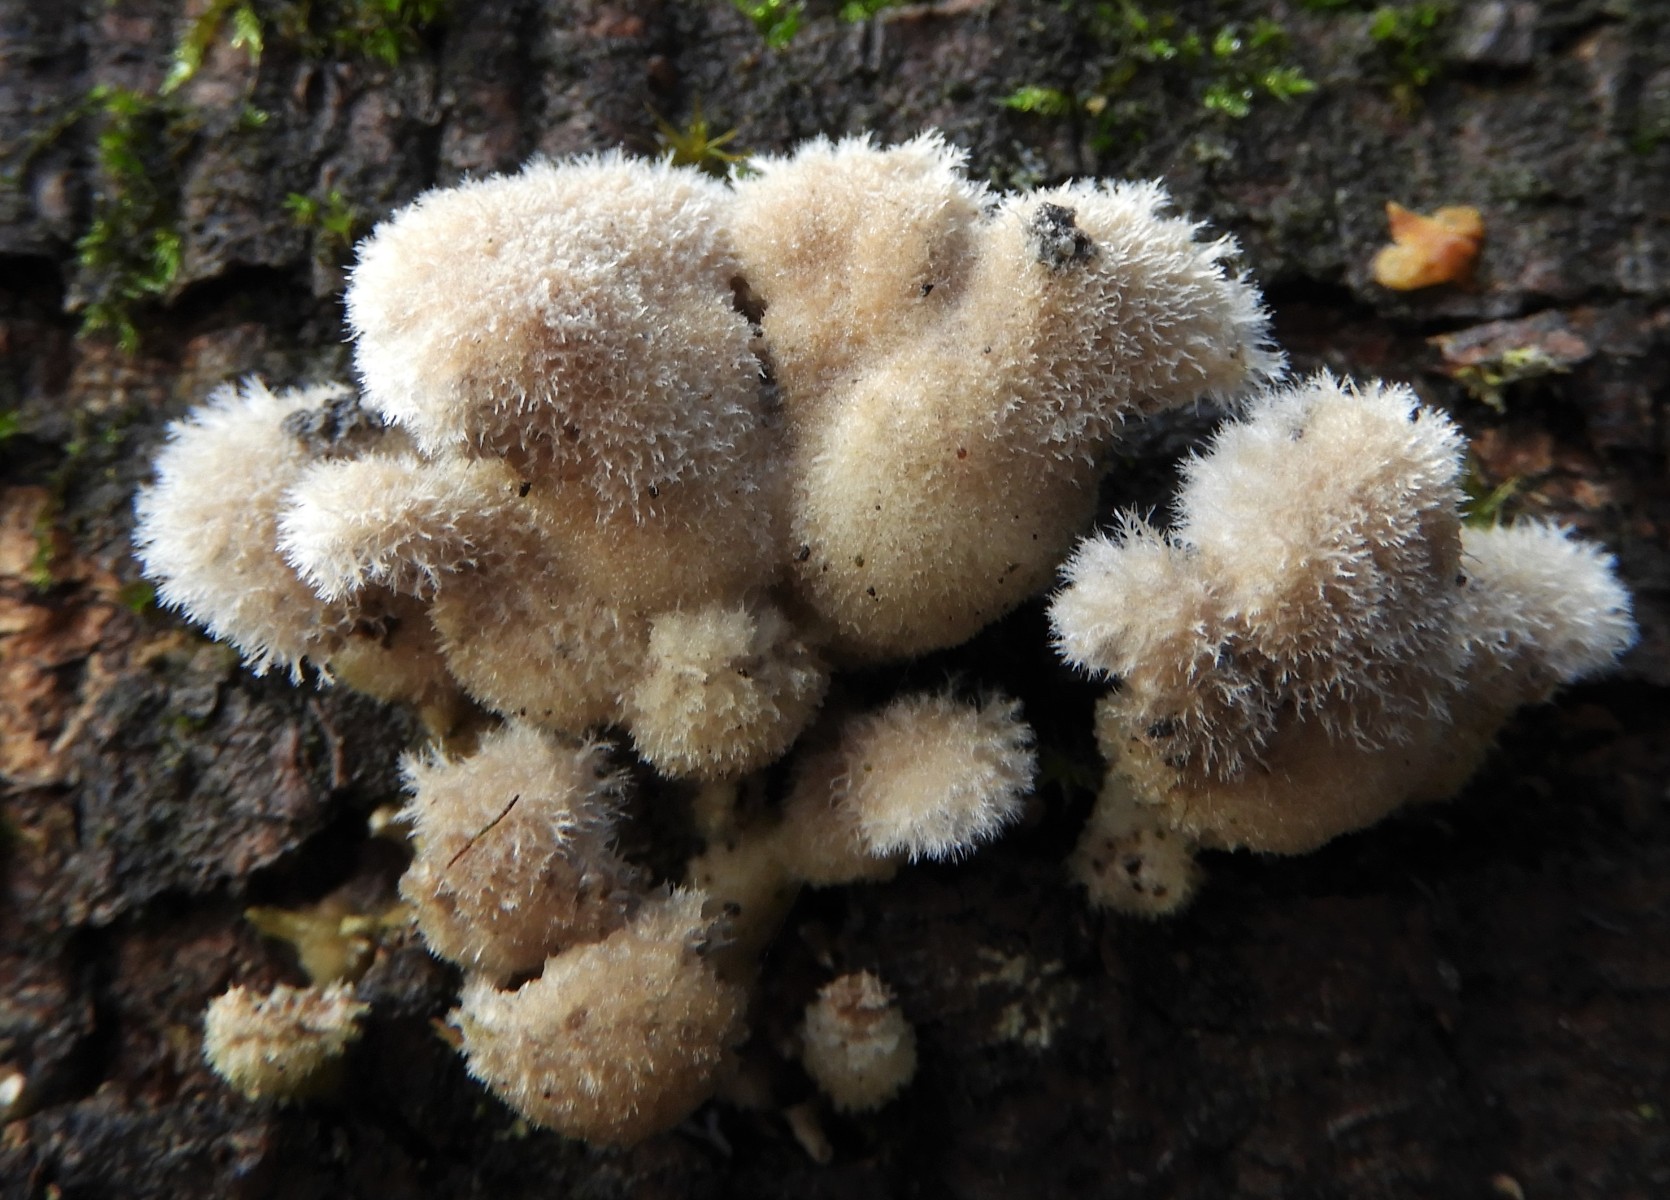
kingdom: Fungi
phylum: Basidiomycota
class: Agaricomycetes
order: Agaricales
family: Schizophyllaceae
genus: Schizophyllum
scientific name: Schizophyllum commune
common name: kløvblad
